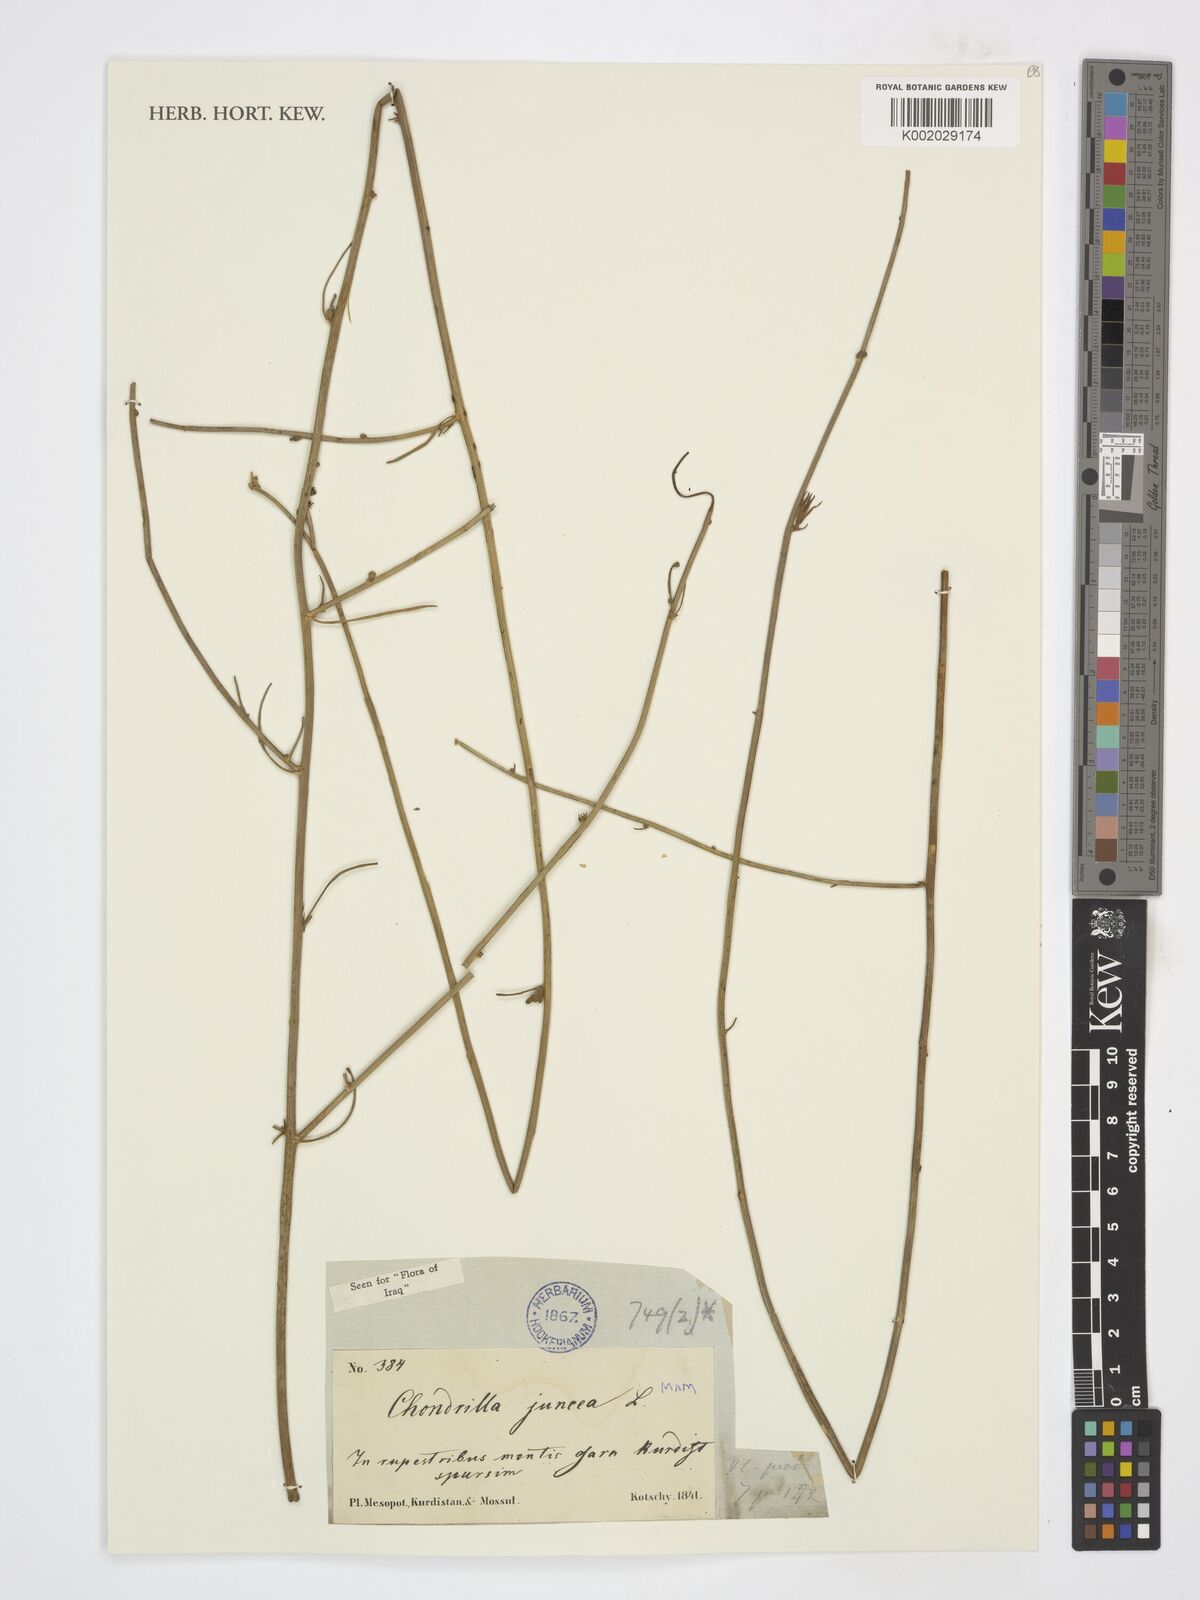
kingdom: Plantae
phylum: Tracheophyta
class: Magnoliopsida
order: Asterales
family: Asteraceae
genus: Chondrilla
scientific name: Chondrilla juncea
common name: Skeleton weed
